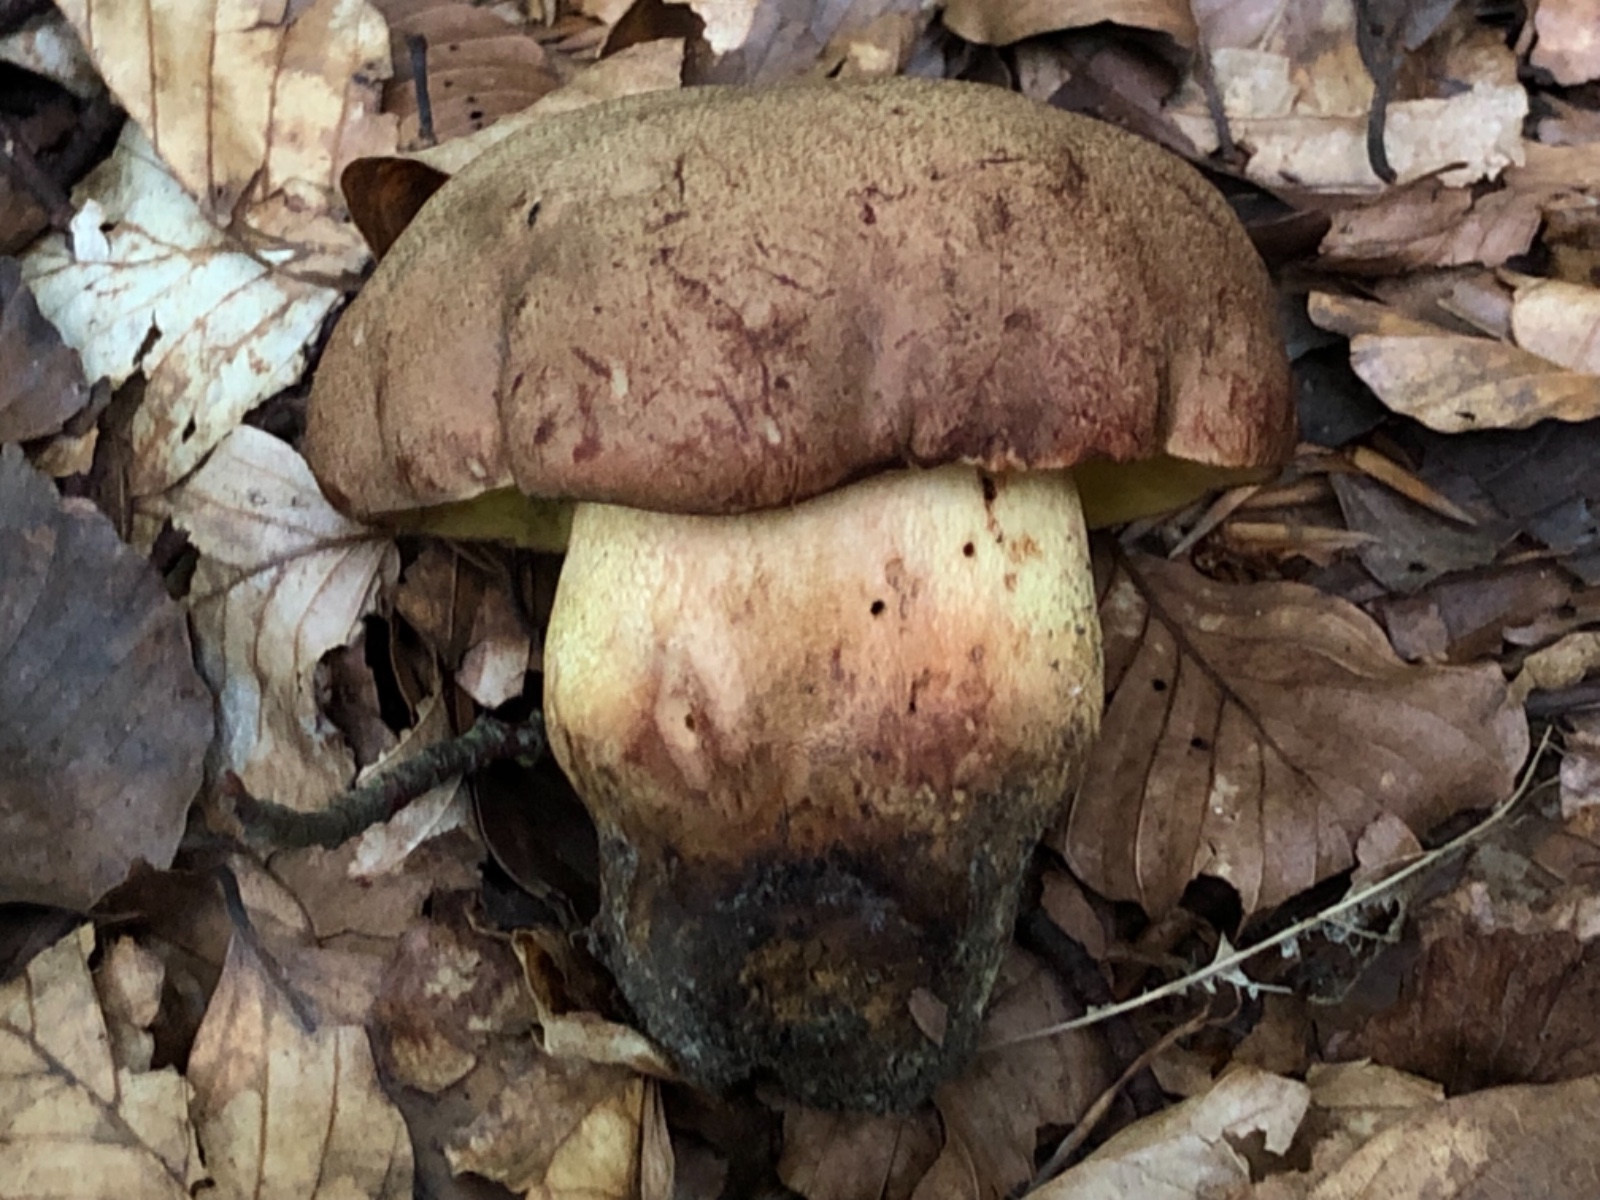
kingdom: Fungi
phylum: Basidiomycota
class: Agaricomycetes
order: Boletales
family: Boletaceae
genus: Butyriboletus
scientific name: Butyriboletus appendiculatus
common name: tenstokket rørhat
